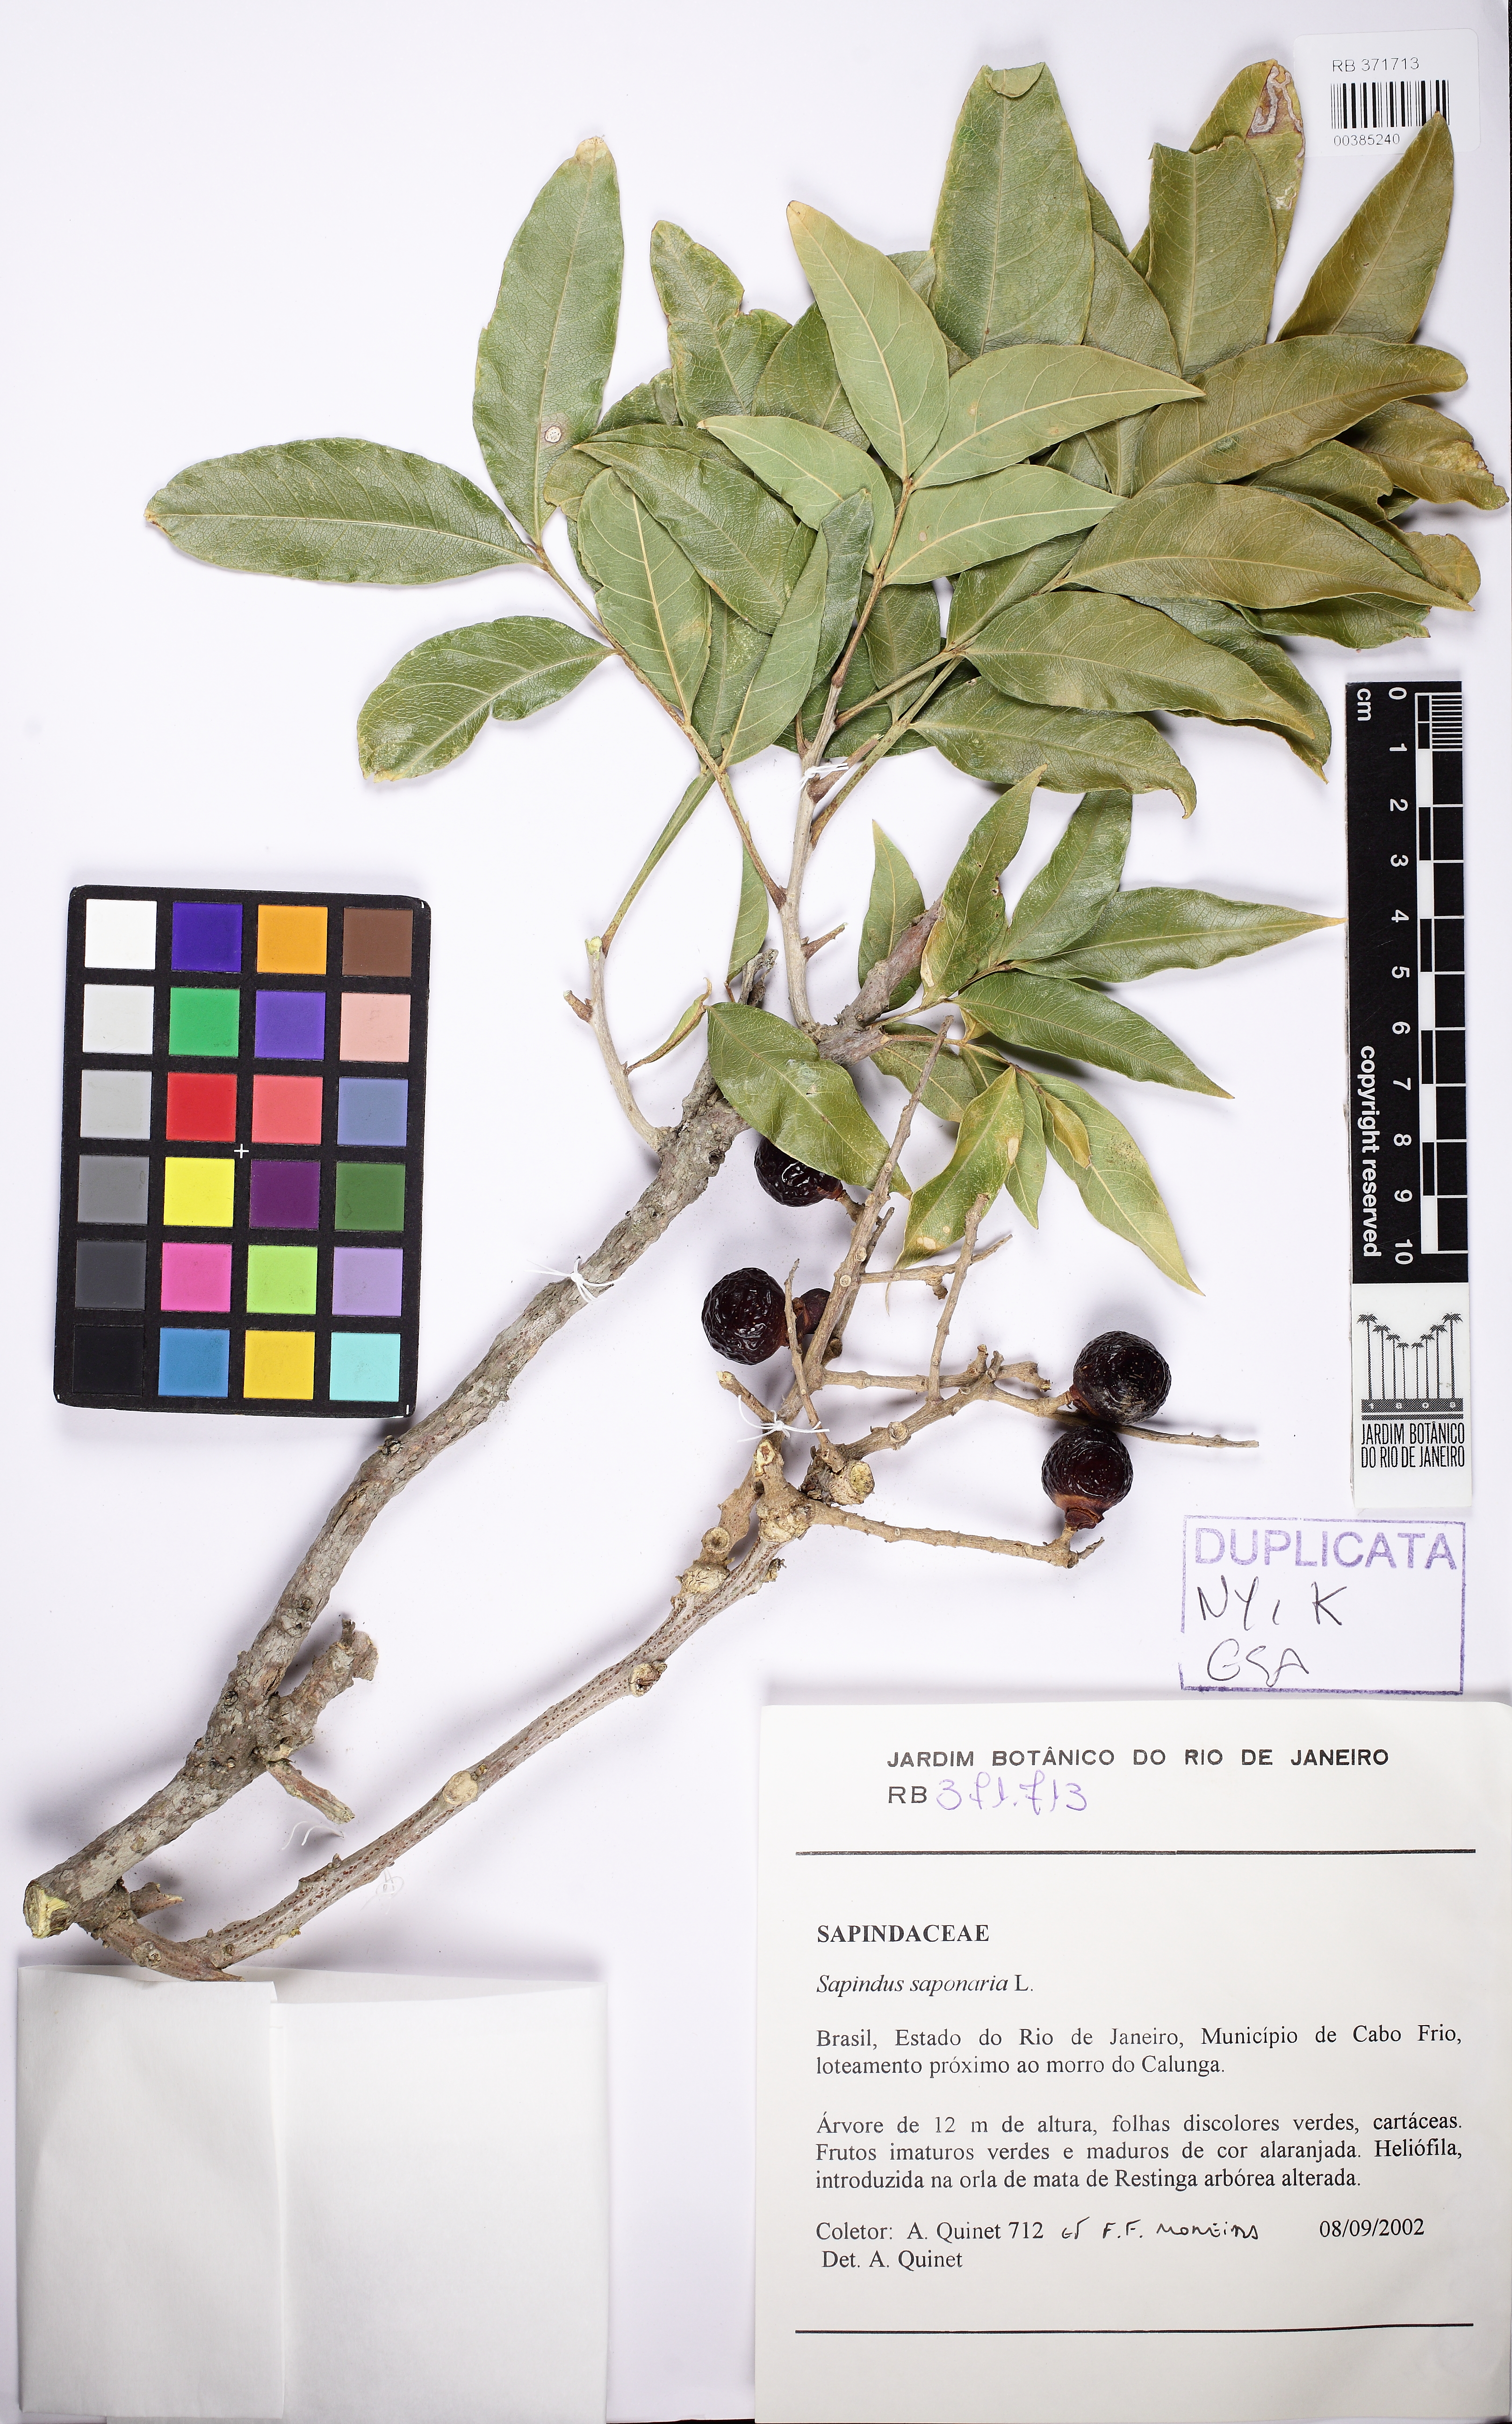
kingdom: Plantae
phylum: Tracheophyta
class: Magnoliopsida
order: Sapindales
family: Sapindaceae
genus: Sapindus
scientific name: Sapindus saponaria
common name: Wingleaf soapberry
